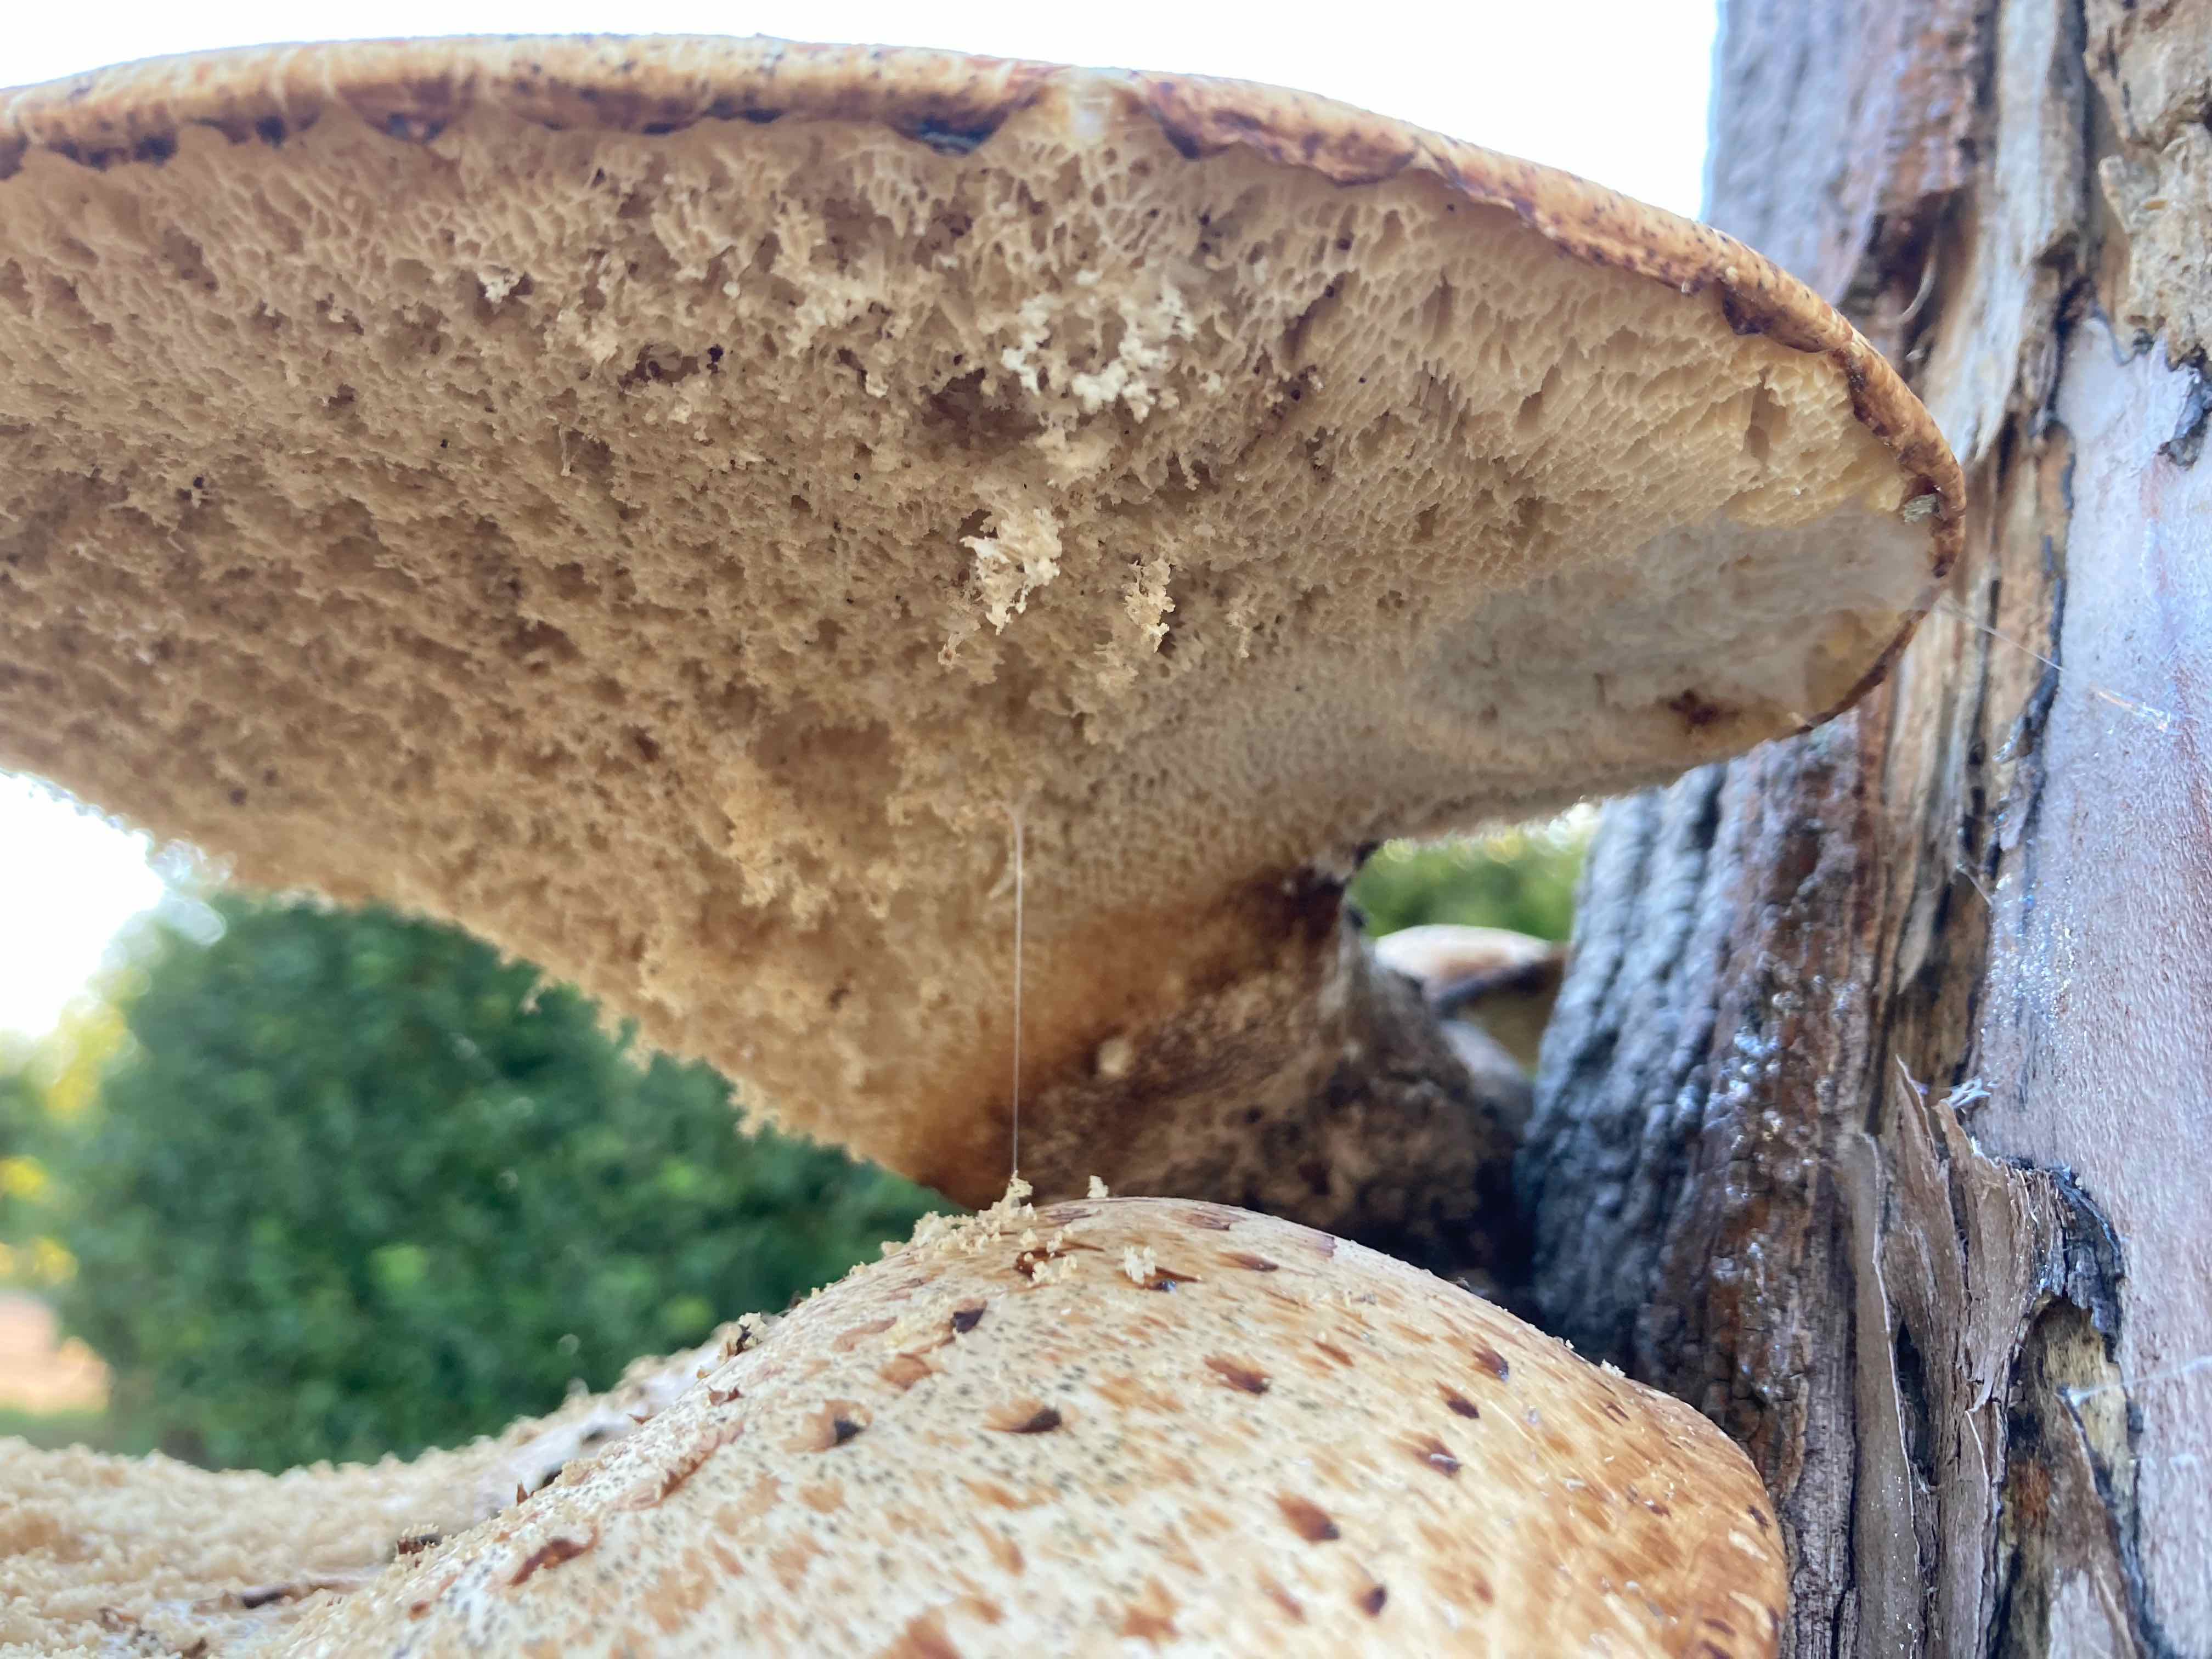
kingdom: Fungi
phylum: Basidiomycota
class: Agaricomycetes
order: Polyporales
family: Polyporaceae
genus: Cerioporus
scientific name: Cerioporus squamosus
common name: skællet stilkporesvamp
